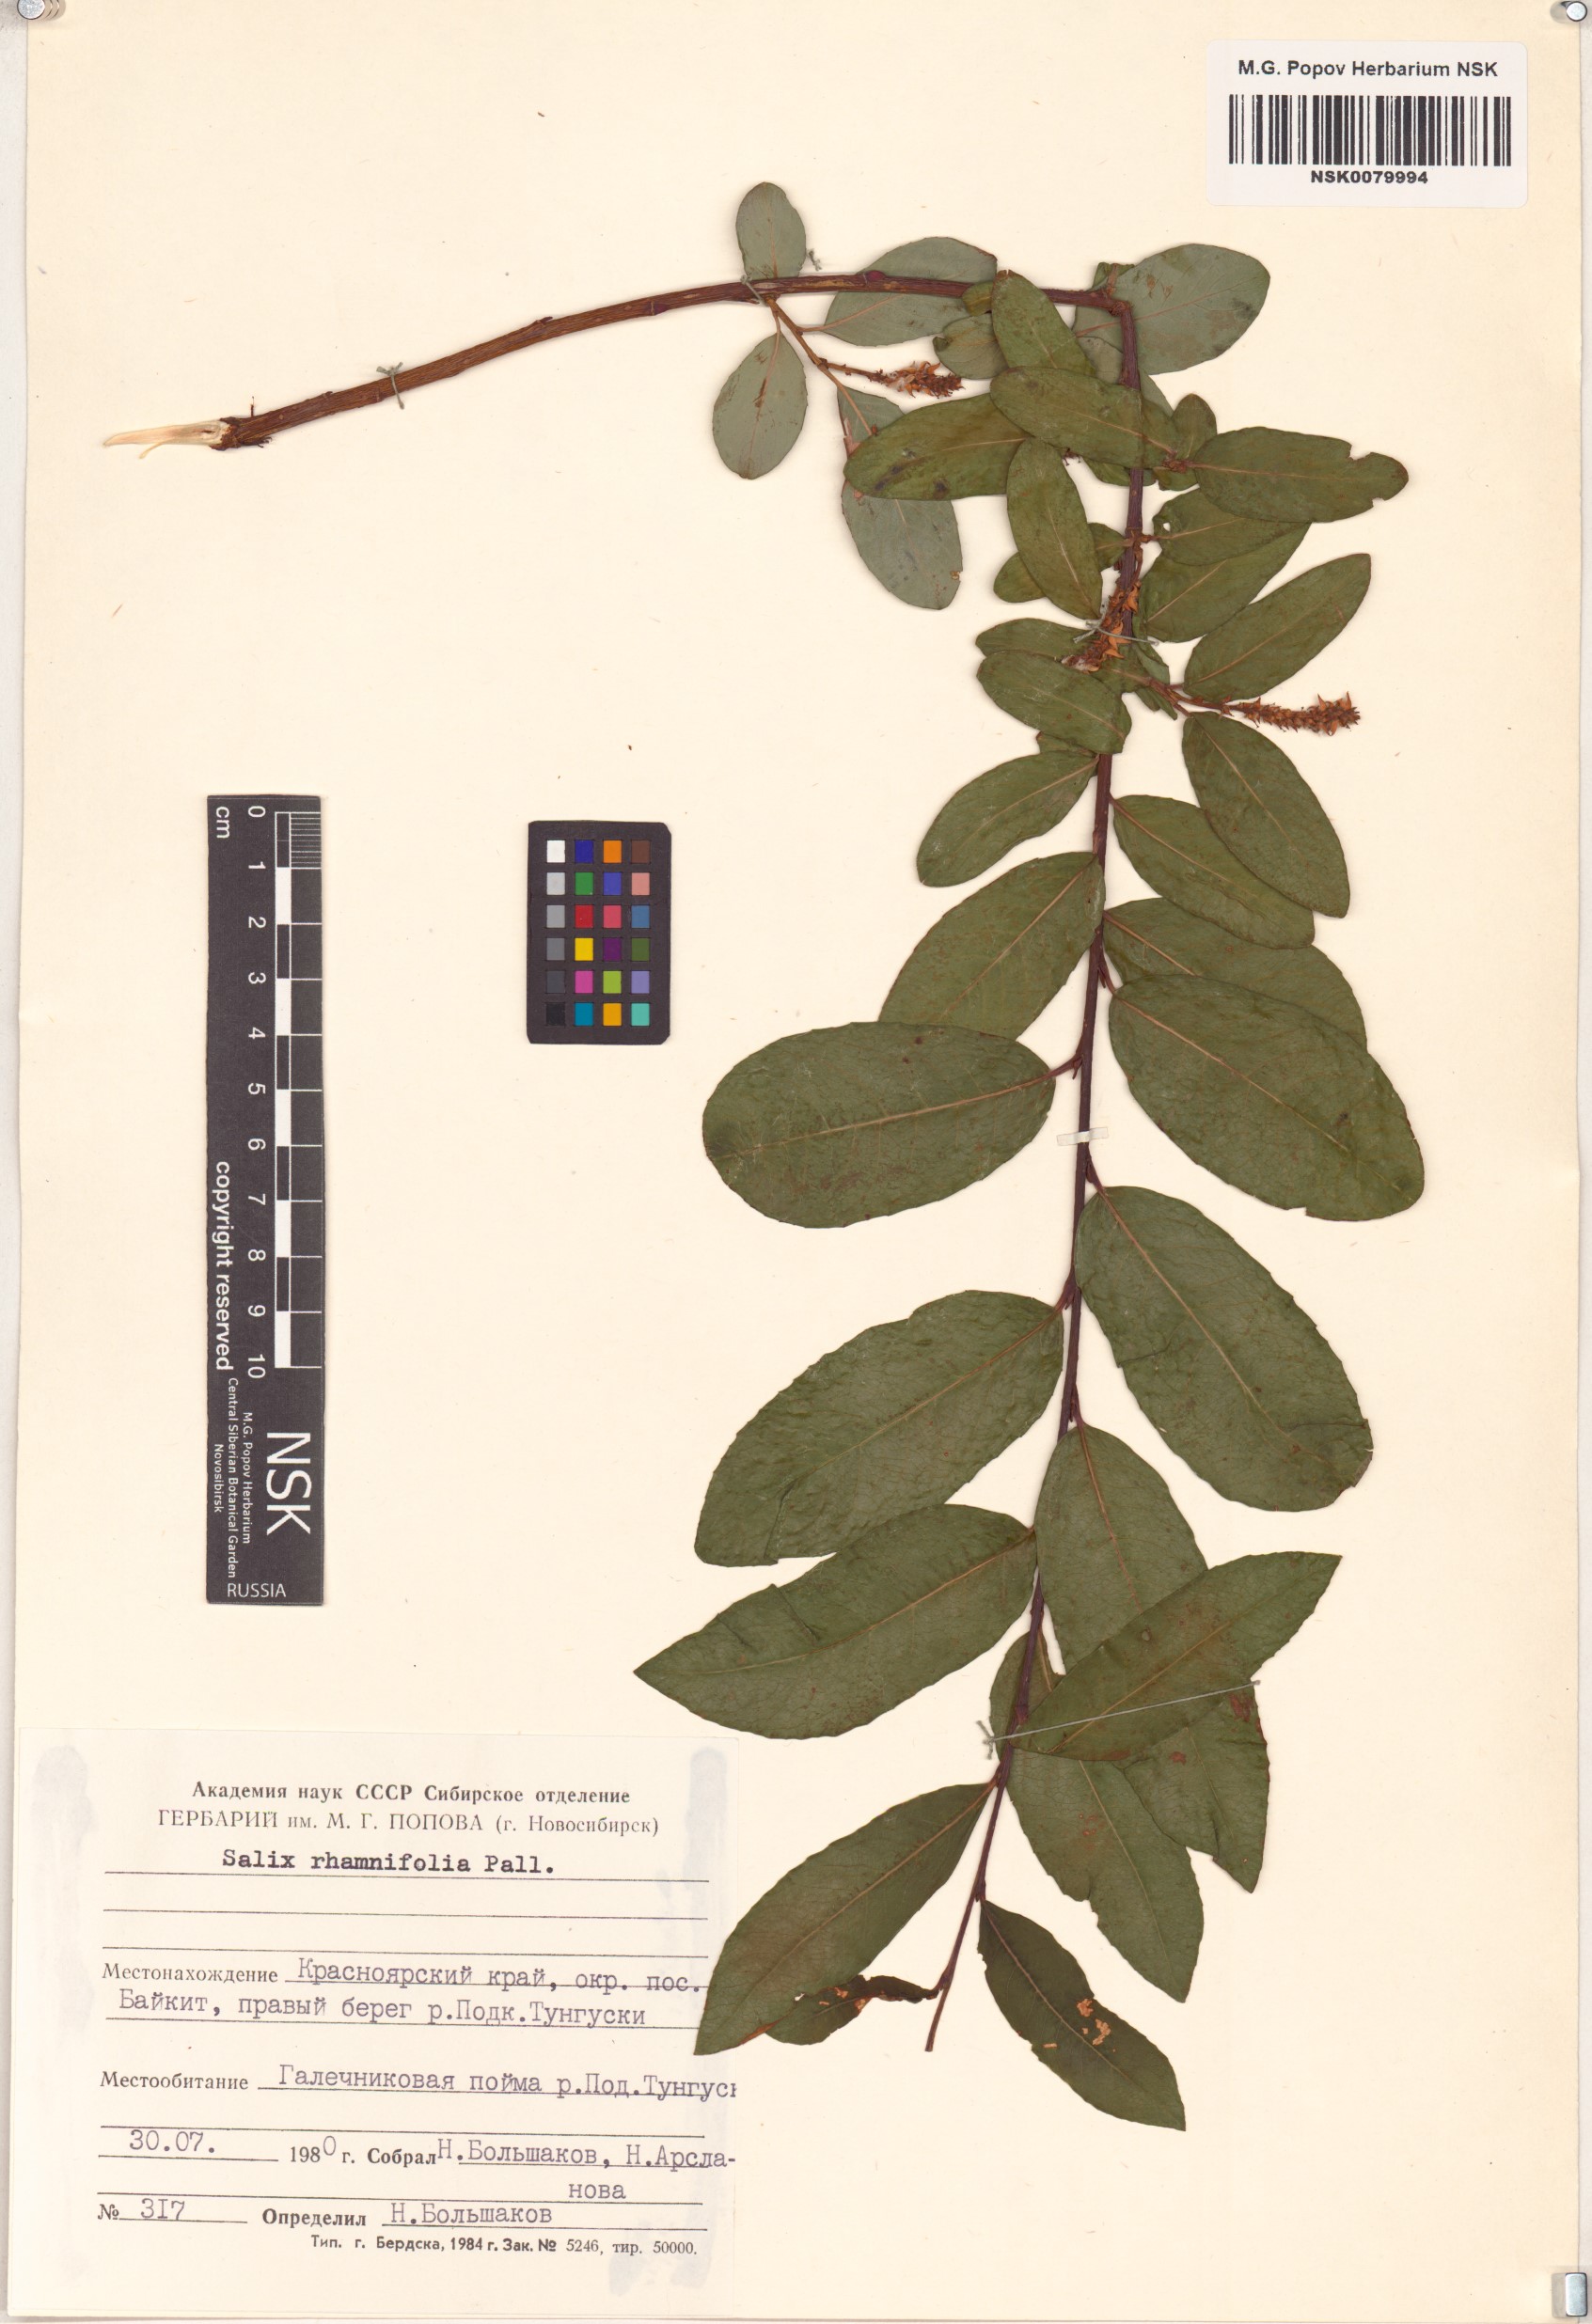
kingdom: Plantae
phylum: Tracheophyta
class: Magnoliopsida
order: Malpighiales
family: Salicaceae
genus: Salix
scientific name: Salix rhamnifolia
